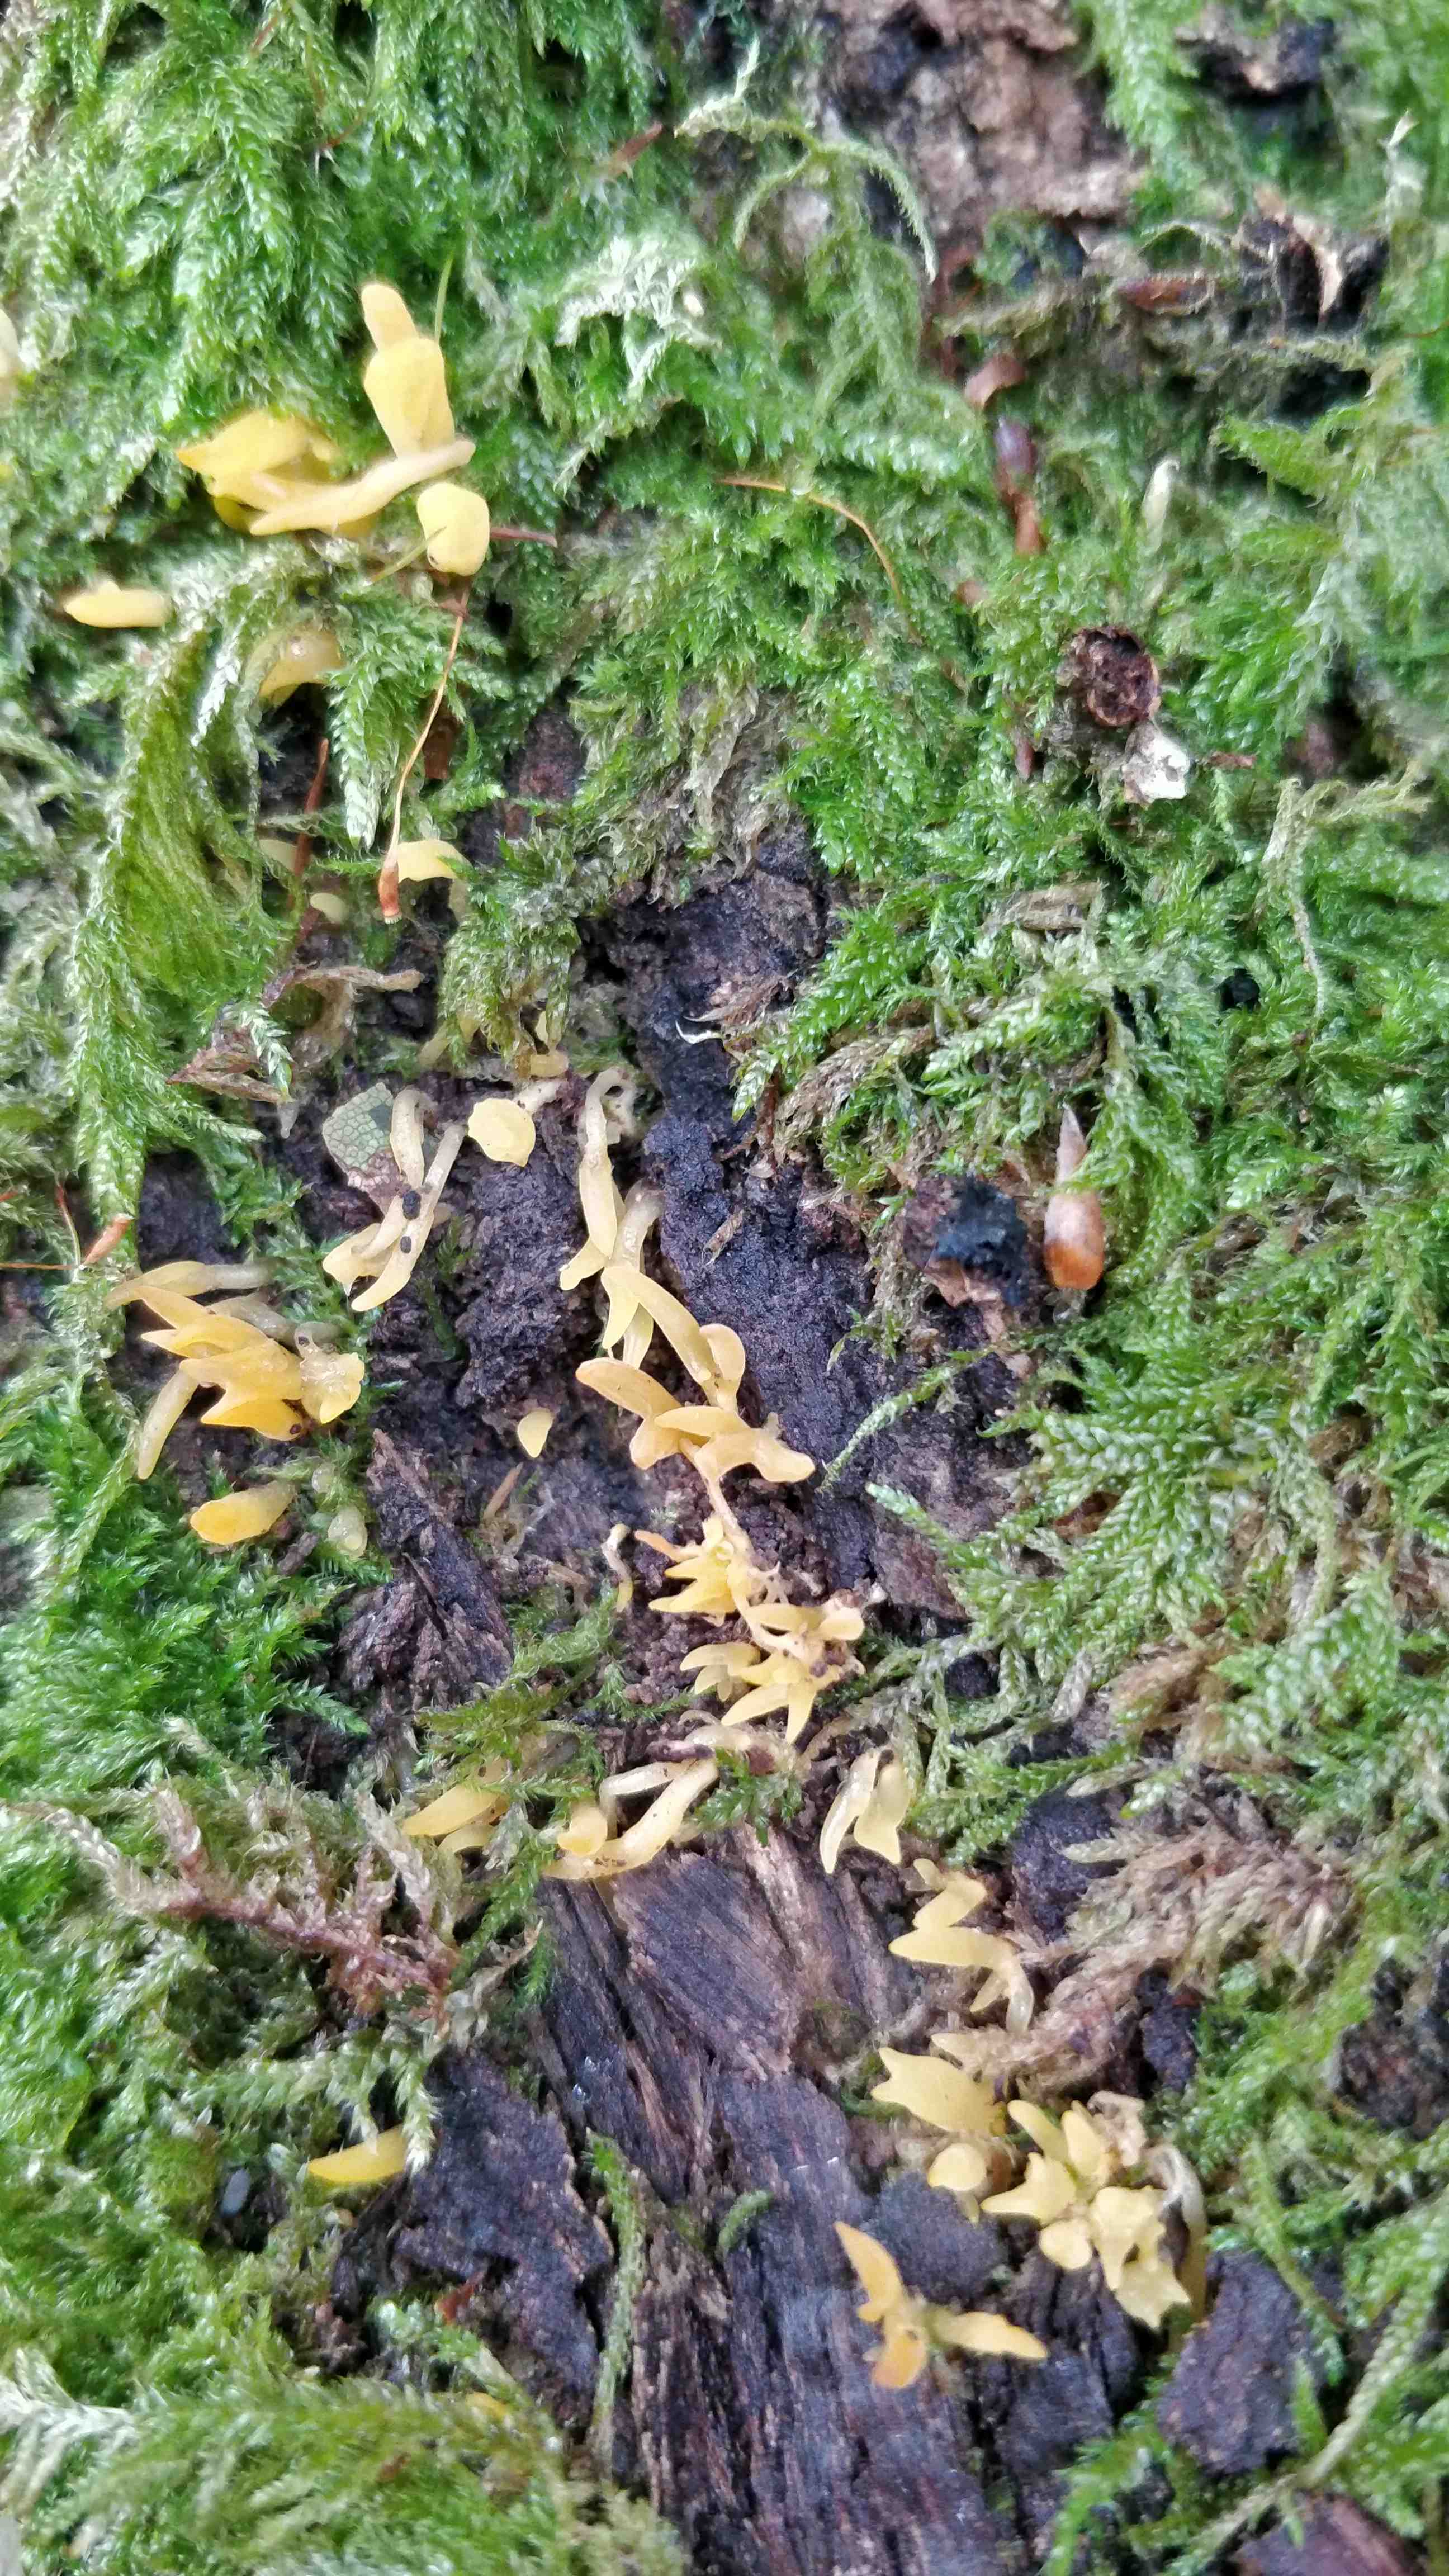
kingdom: Fungi
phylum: Basidiomycota
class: Dacrymycetes
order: Dacrymycetales
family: Dacrymycetaceae
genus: Calocera
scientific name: Calocera cornea
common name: liden guldgaffel
